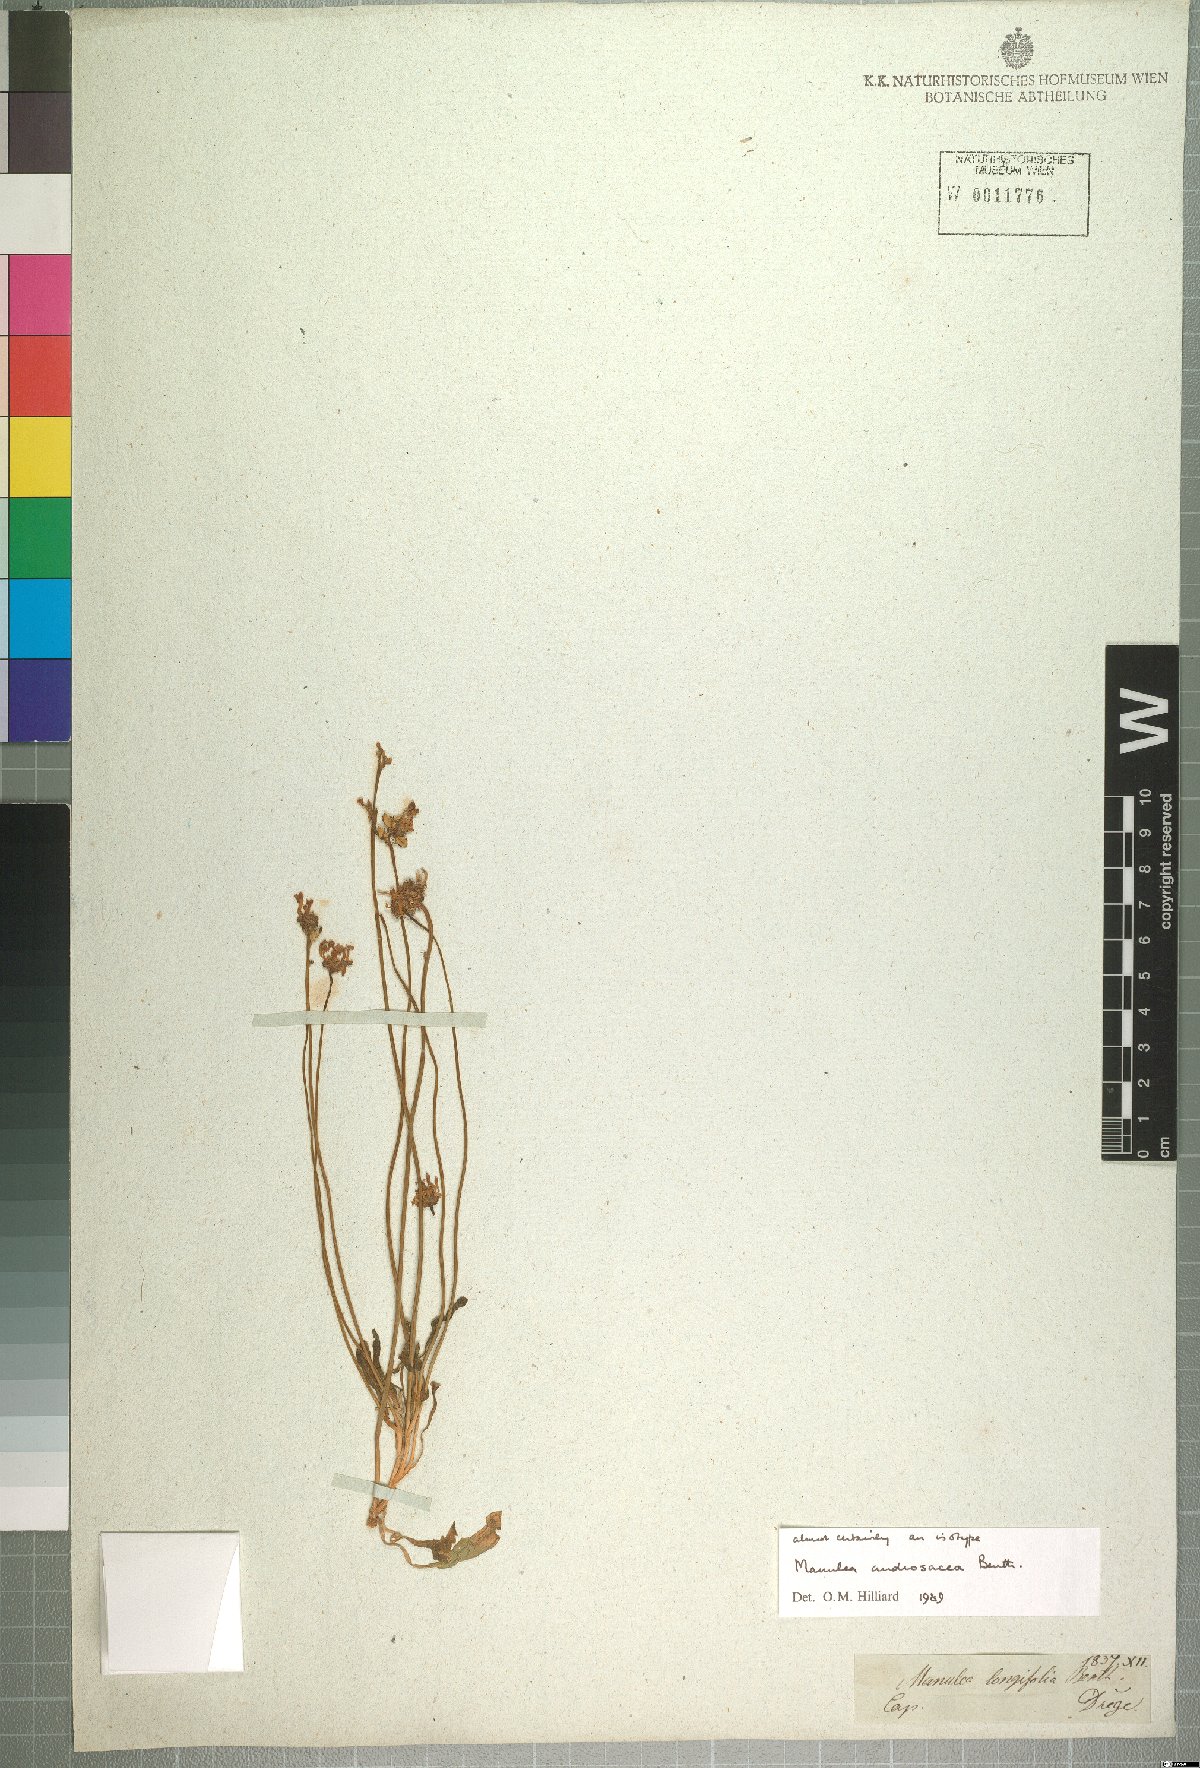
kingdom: Plantae
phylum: Tracheophyta
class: Magnoliopsida
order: Lamiales
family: Scrophulariaceae
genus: Manulea
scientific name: Manulea androsacea
